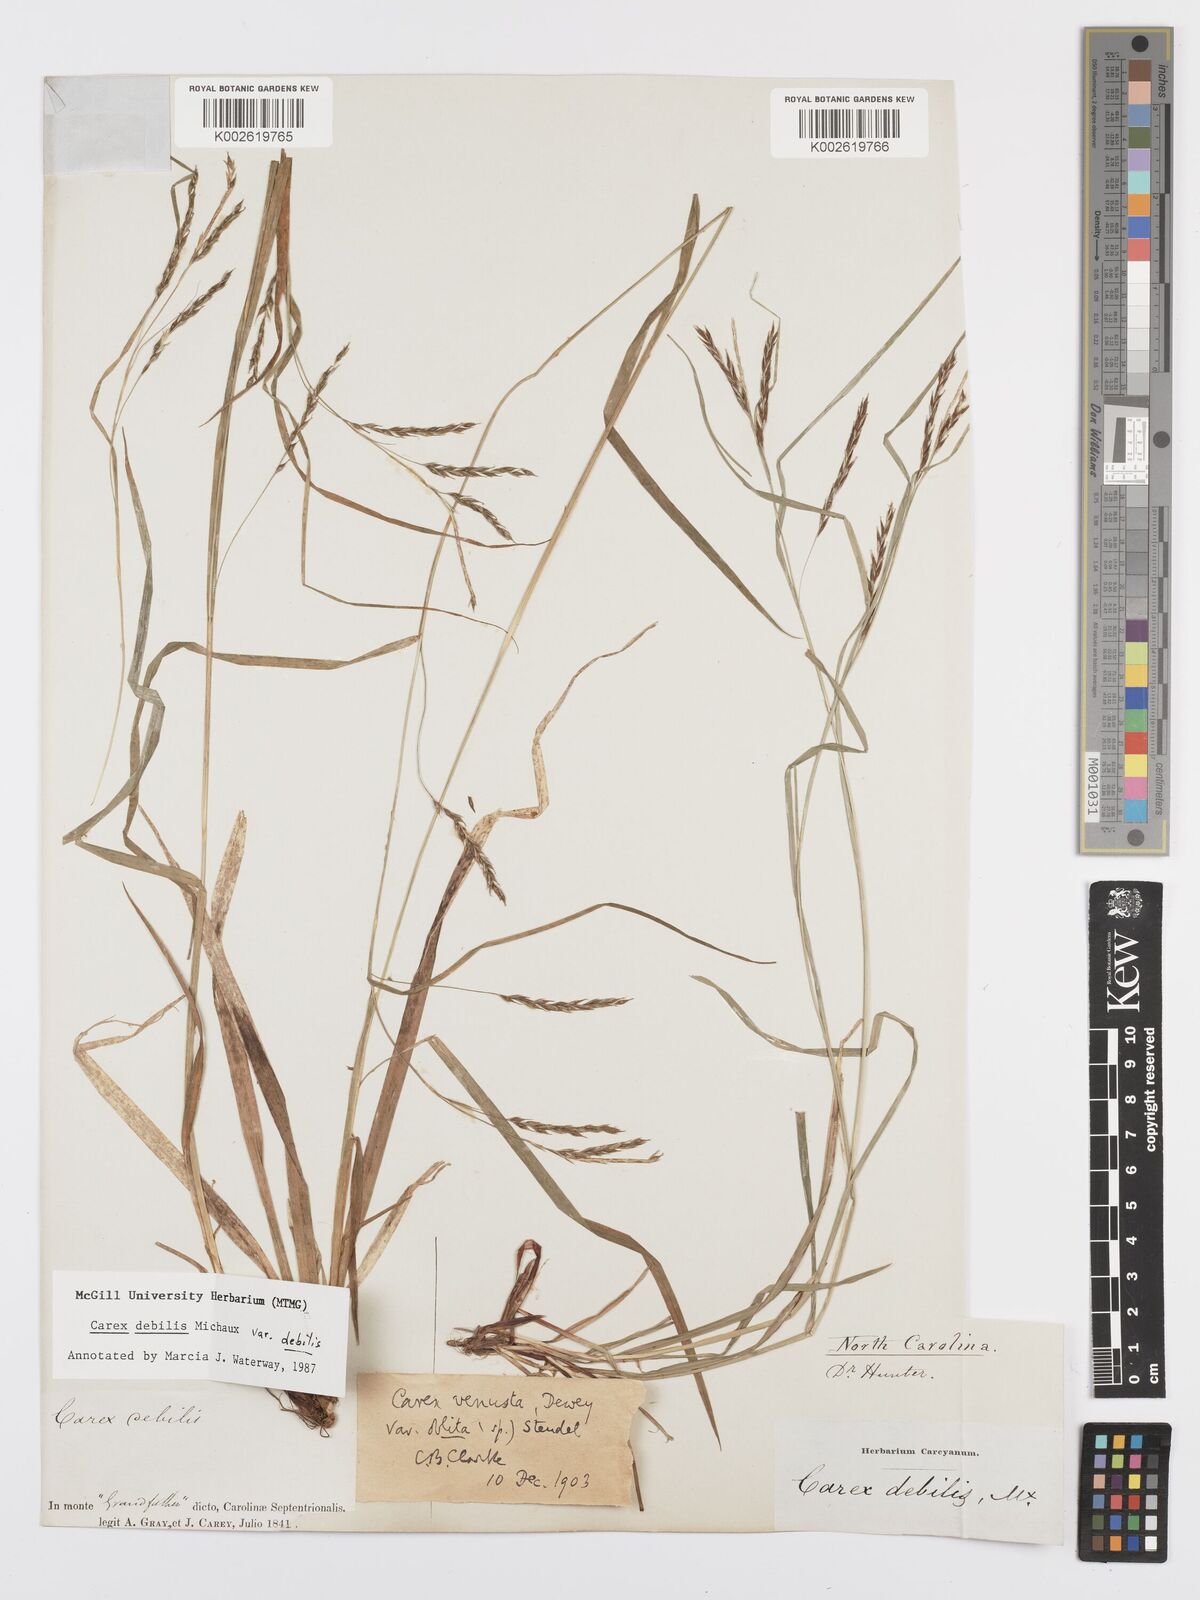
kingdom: Plantae
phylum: Tracheophyta
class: Liliopsida
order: Poales
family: Cyperaceae
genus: Carex
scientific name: Carex debilis
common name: White-edge sedge
